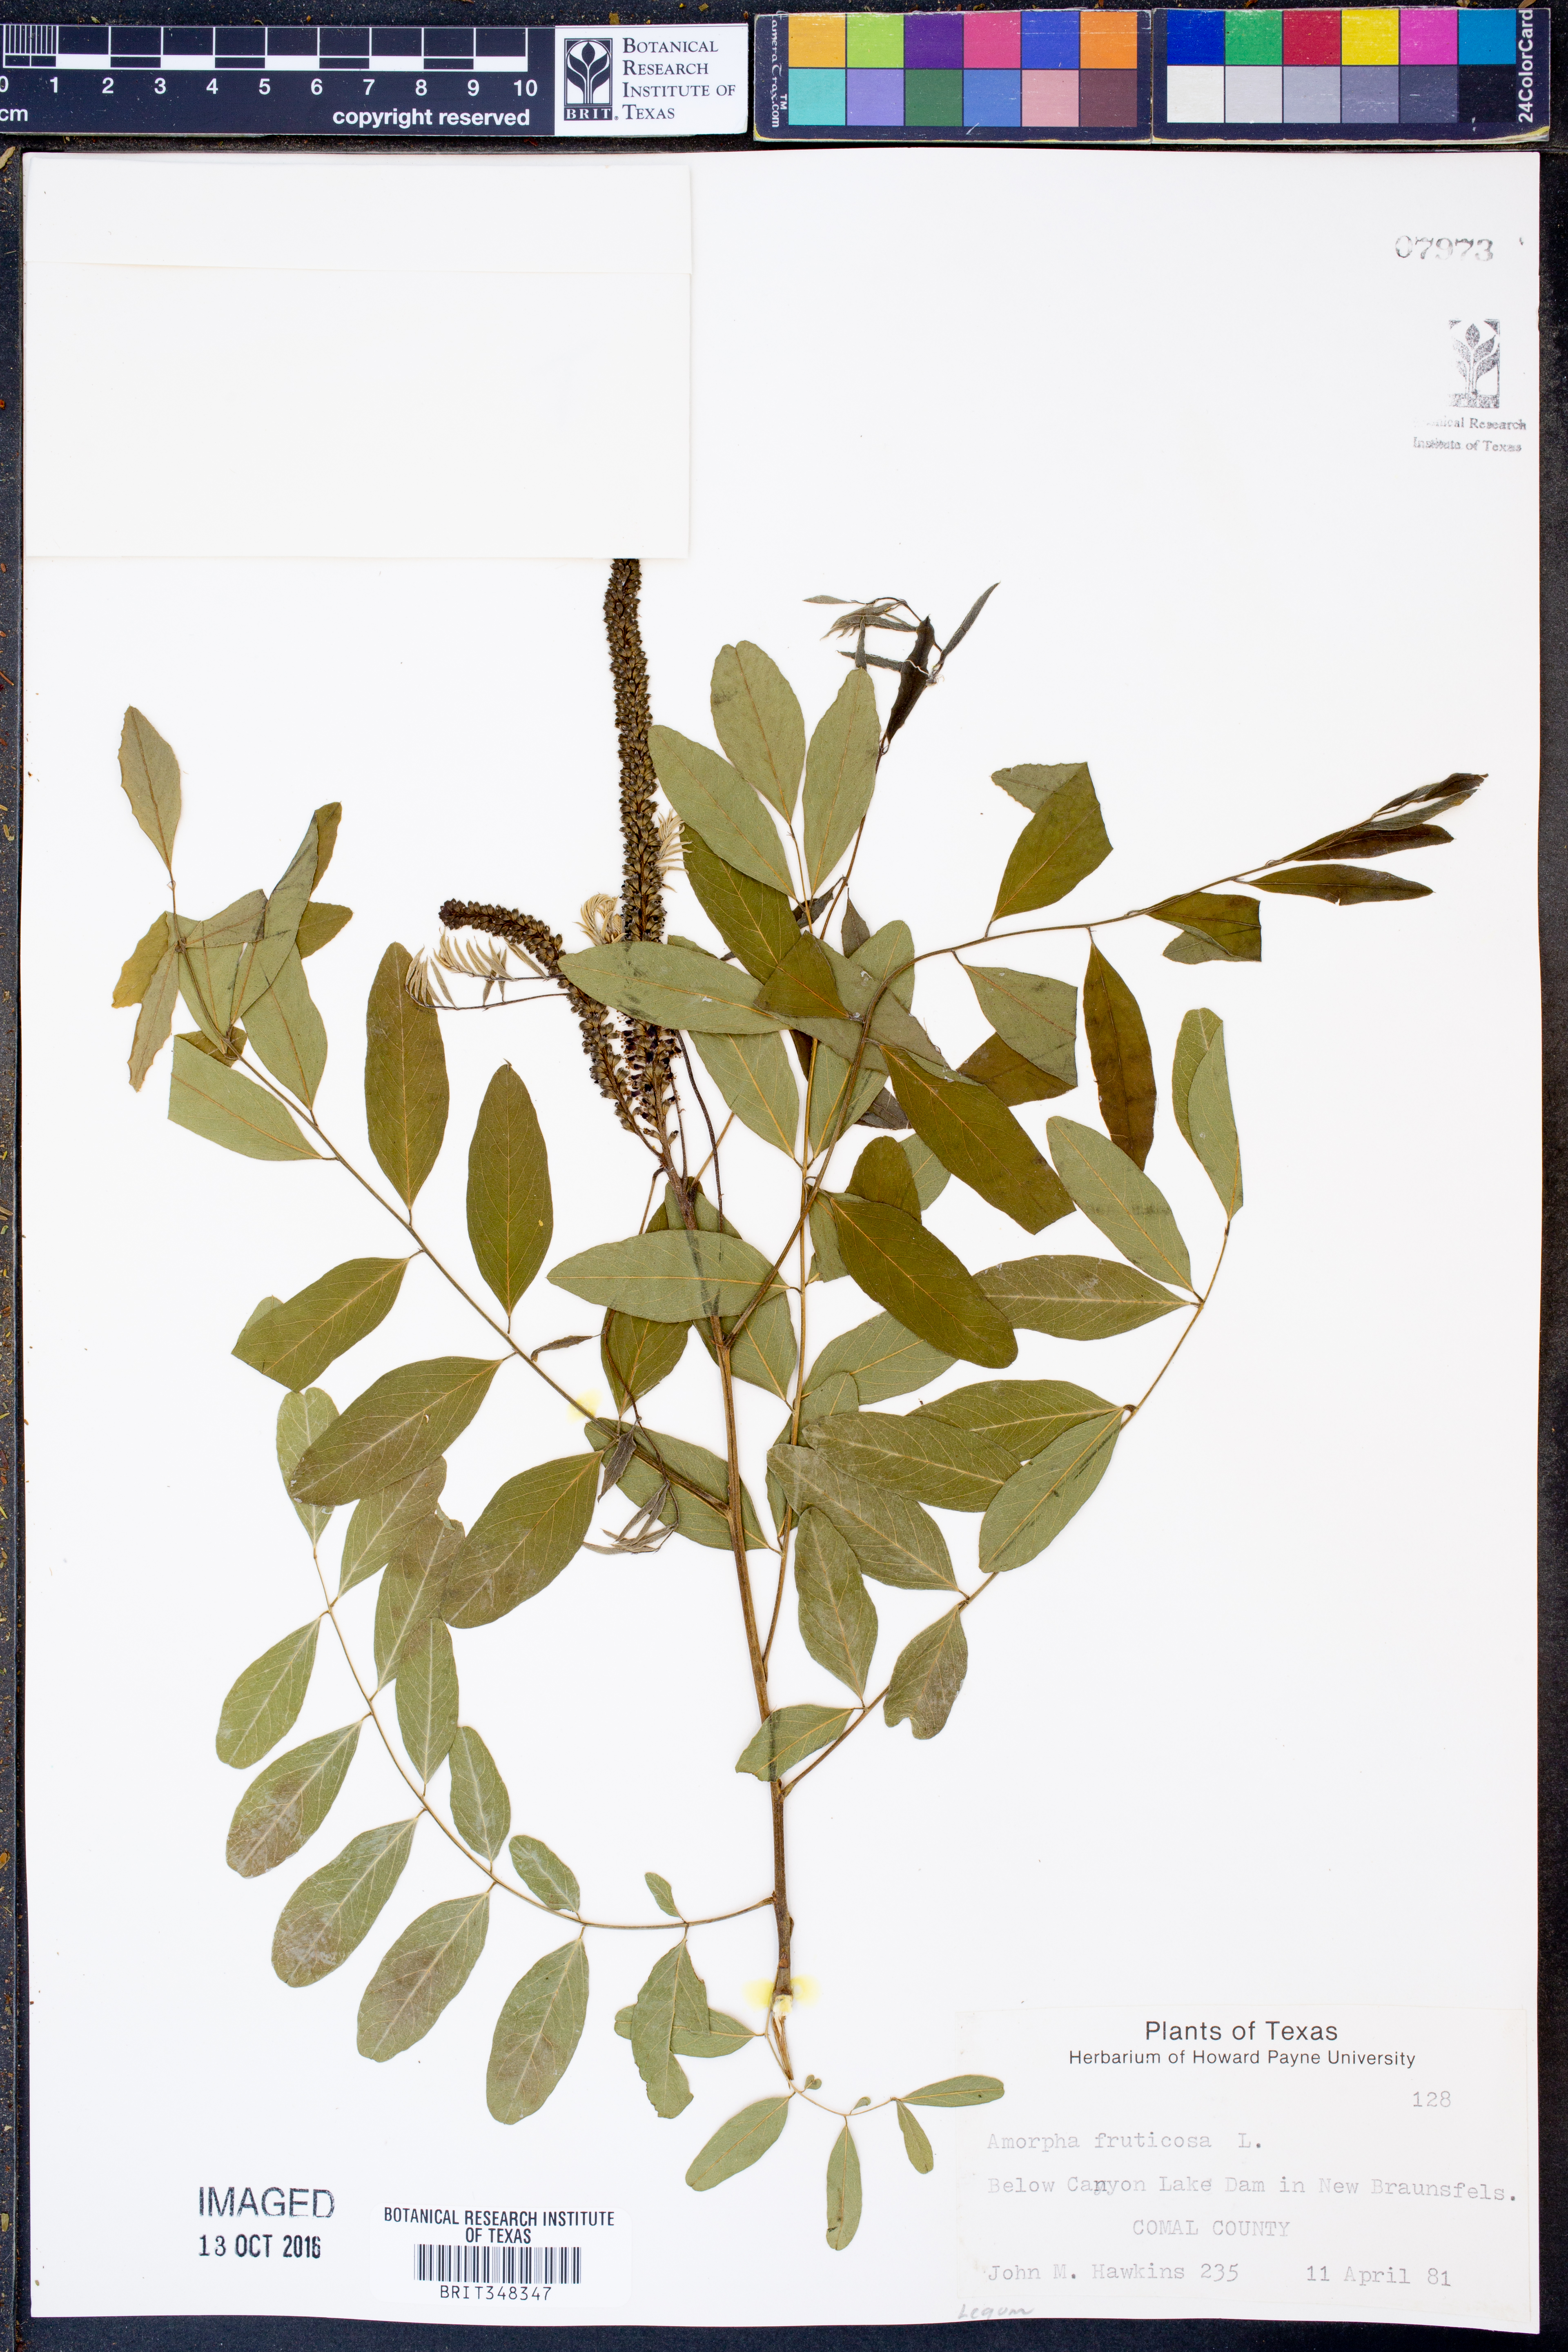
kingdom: Plantae
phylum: Tracheophyta
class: Magnoliopsida
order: Fabales
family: Fabaceae
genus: Amorpha
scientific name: Amorpha fruticosa
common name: False indigo
